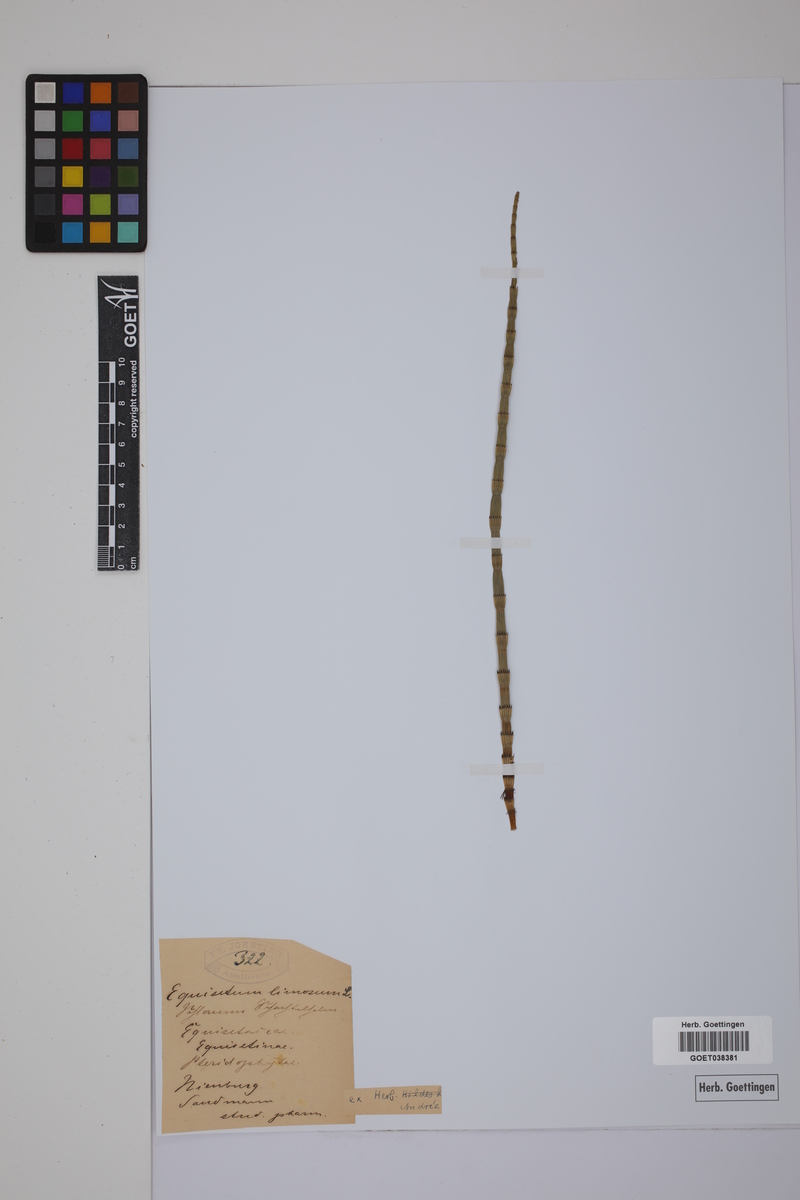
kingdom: Plantae
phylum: Tracheophyta
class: Polypodiopsida
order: Equisetales
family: Equisetaceae
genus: Equisetum
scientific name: Equisetum fluviatile
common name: Water horsetail
